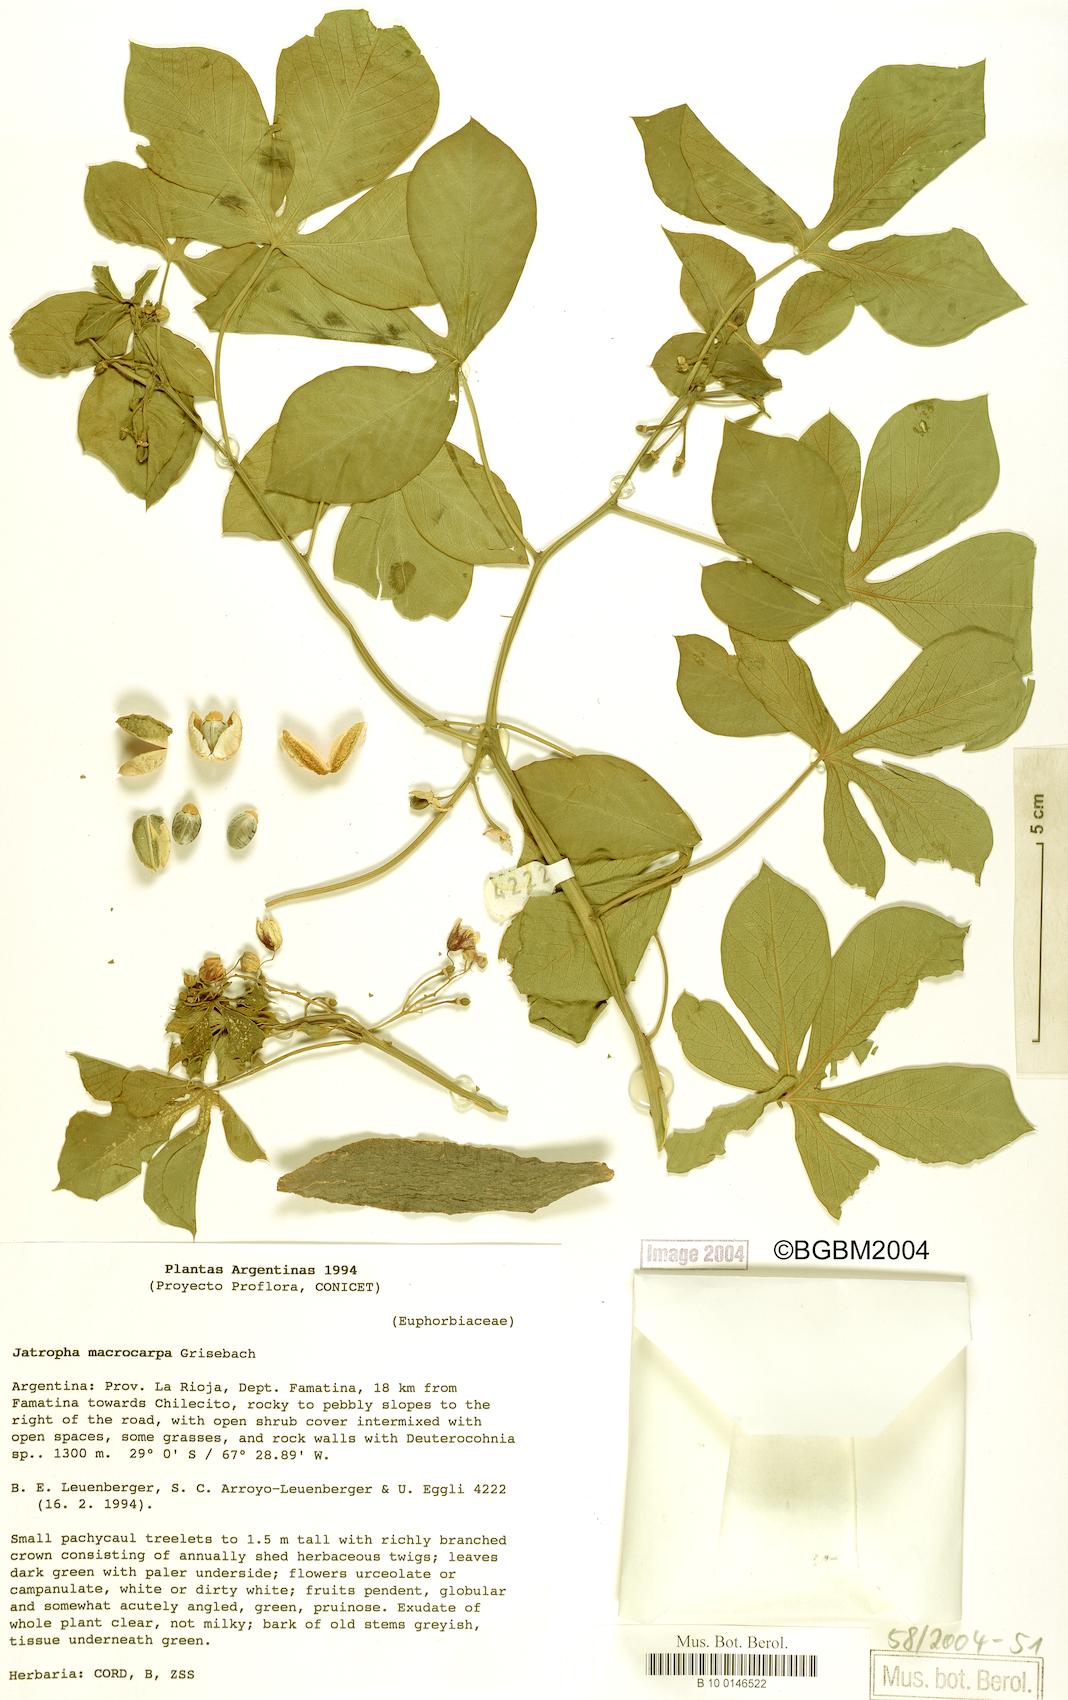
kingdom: Plantae
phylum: Tracheophyta
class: Magnoliopsida
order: Malpighiales
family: Euphorbiaceae
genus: Jatropha
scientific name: Jatropha macrocarpa
